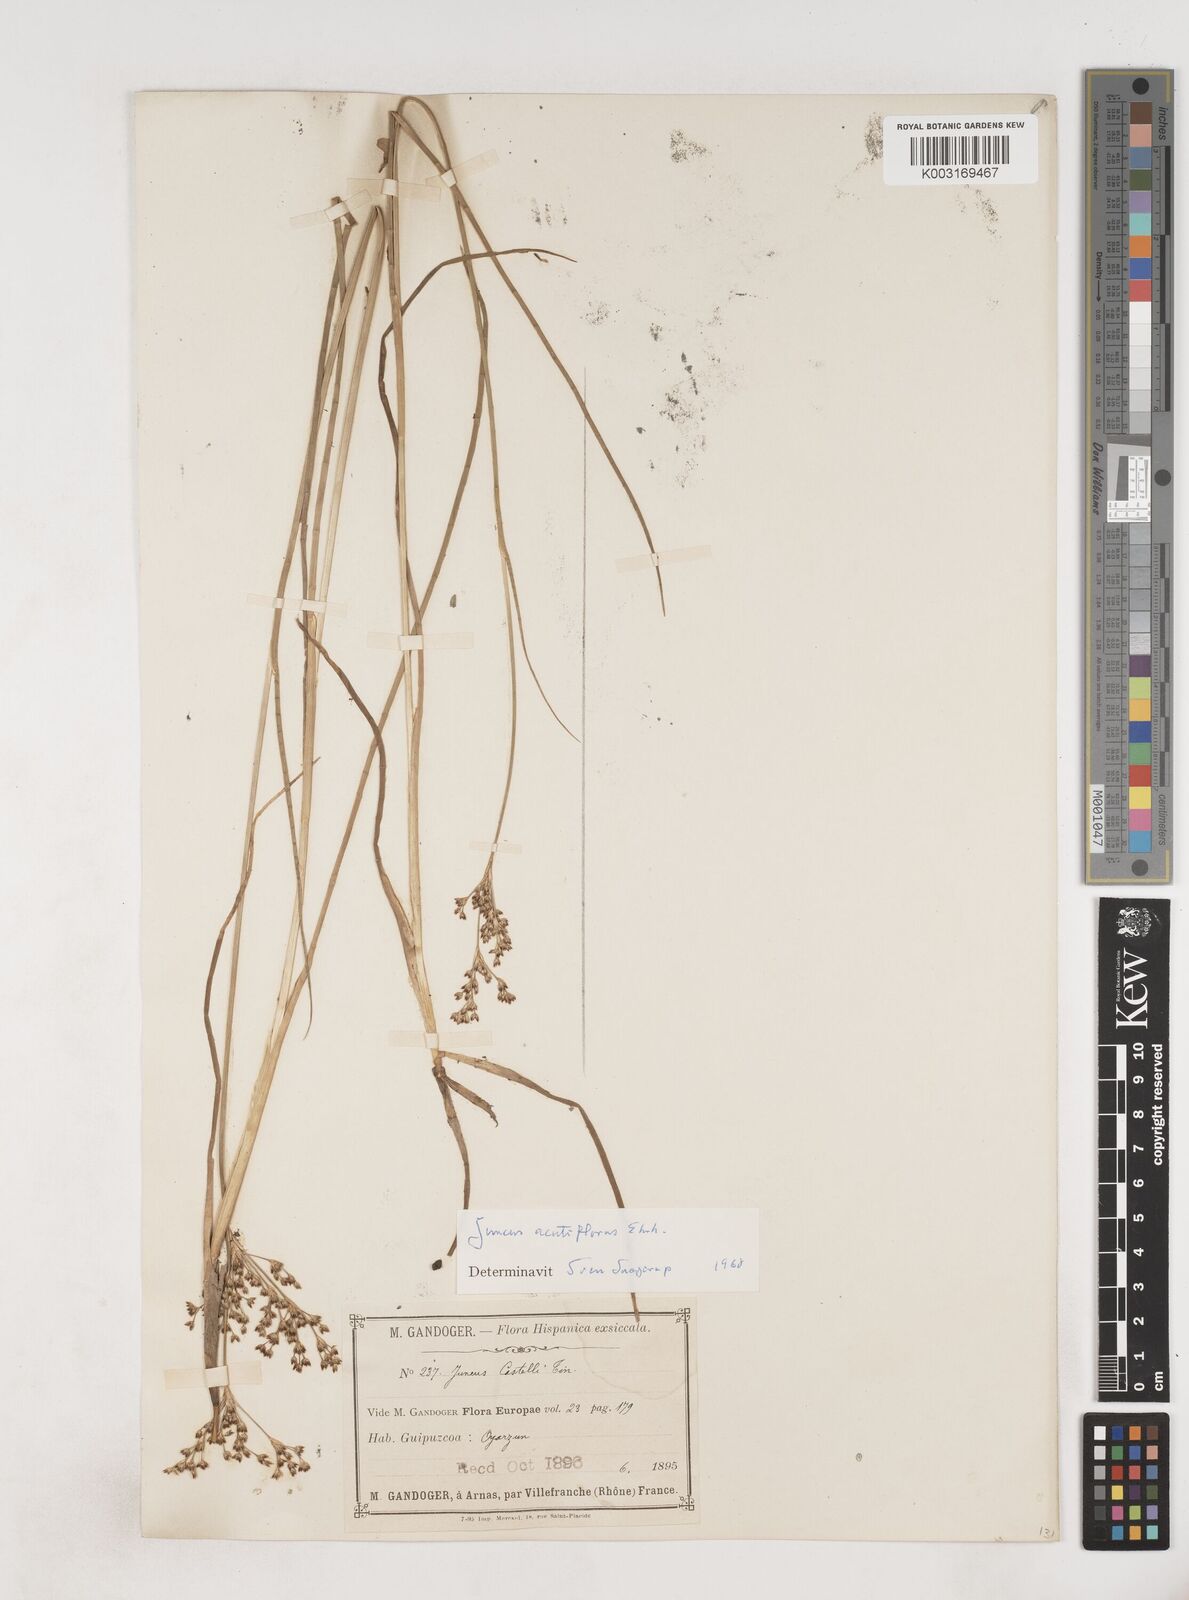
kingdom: Plantae
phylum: Tracheophyta
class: Liliopsida
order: Poales
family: Juncaceae
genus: Juncus
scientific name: Juncus acutiflorus
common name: Sharp-flowered rush
